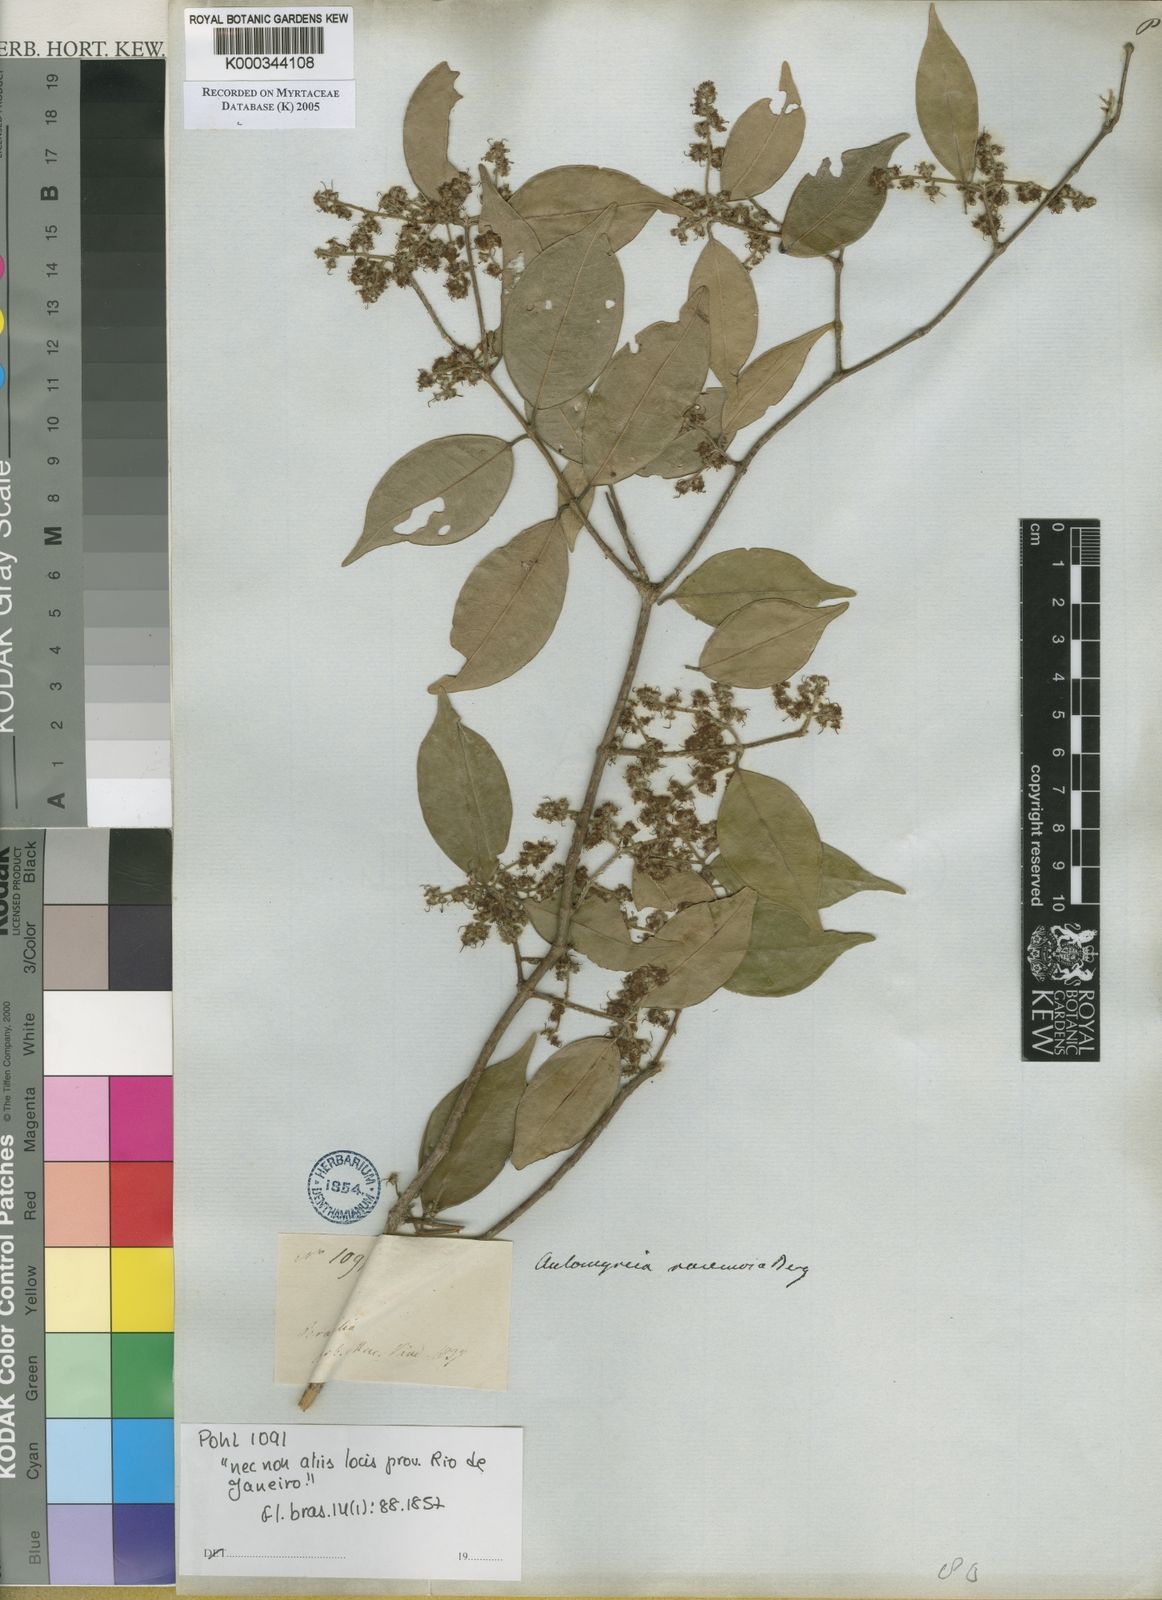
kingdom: Plantae
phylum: Tracheophyta
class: Magnoliopsida
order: Myrtales
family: Myrtaceae
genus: Myrcia
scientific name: Myrcia racemosa
